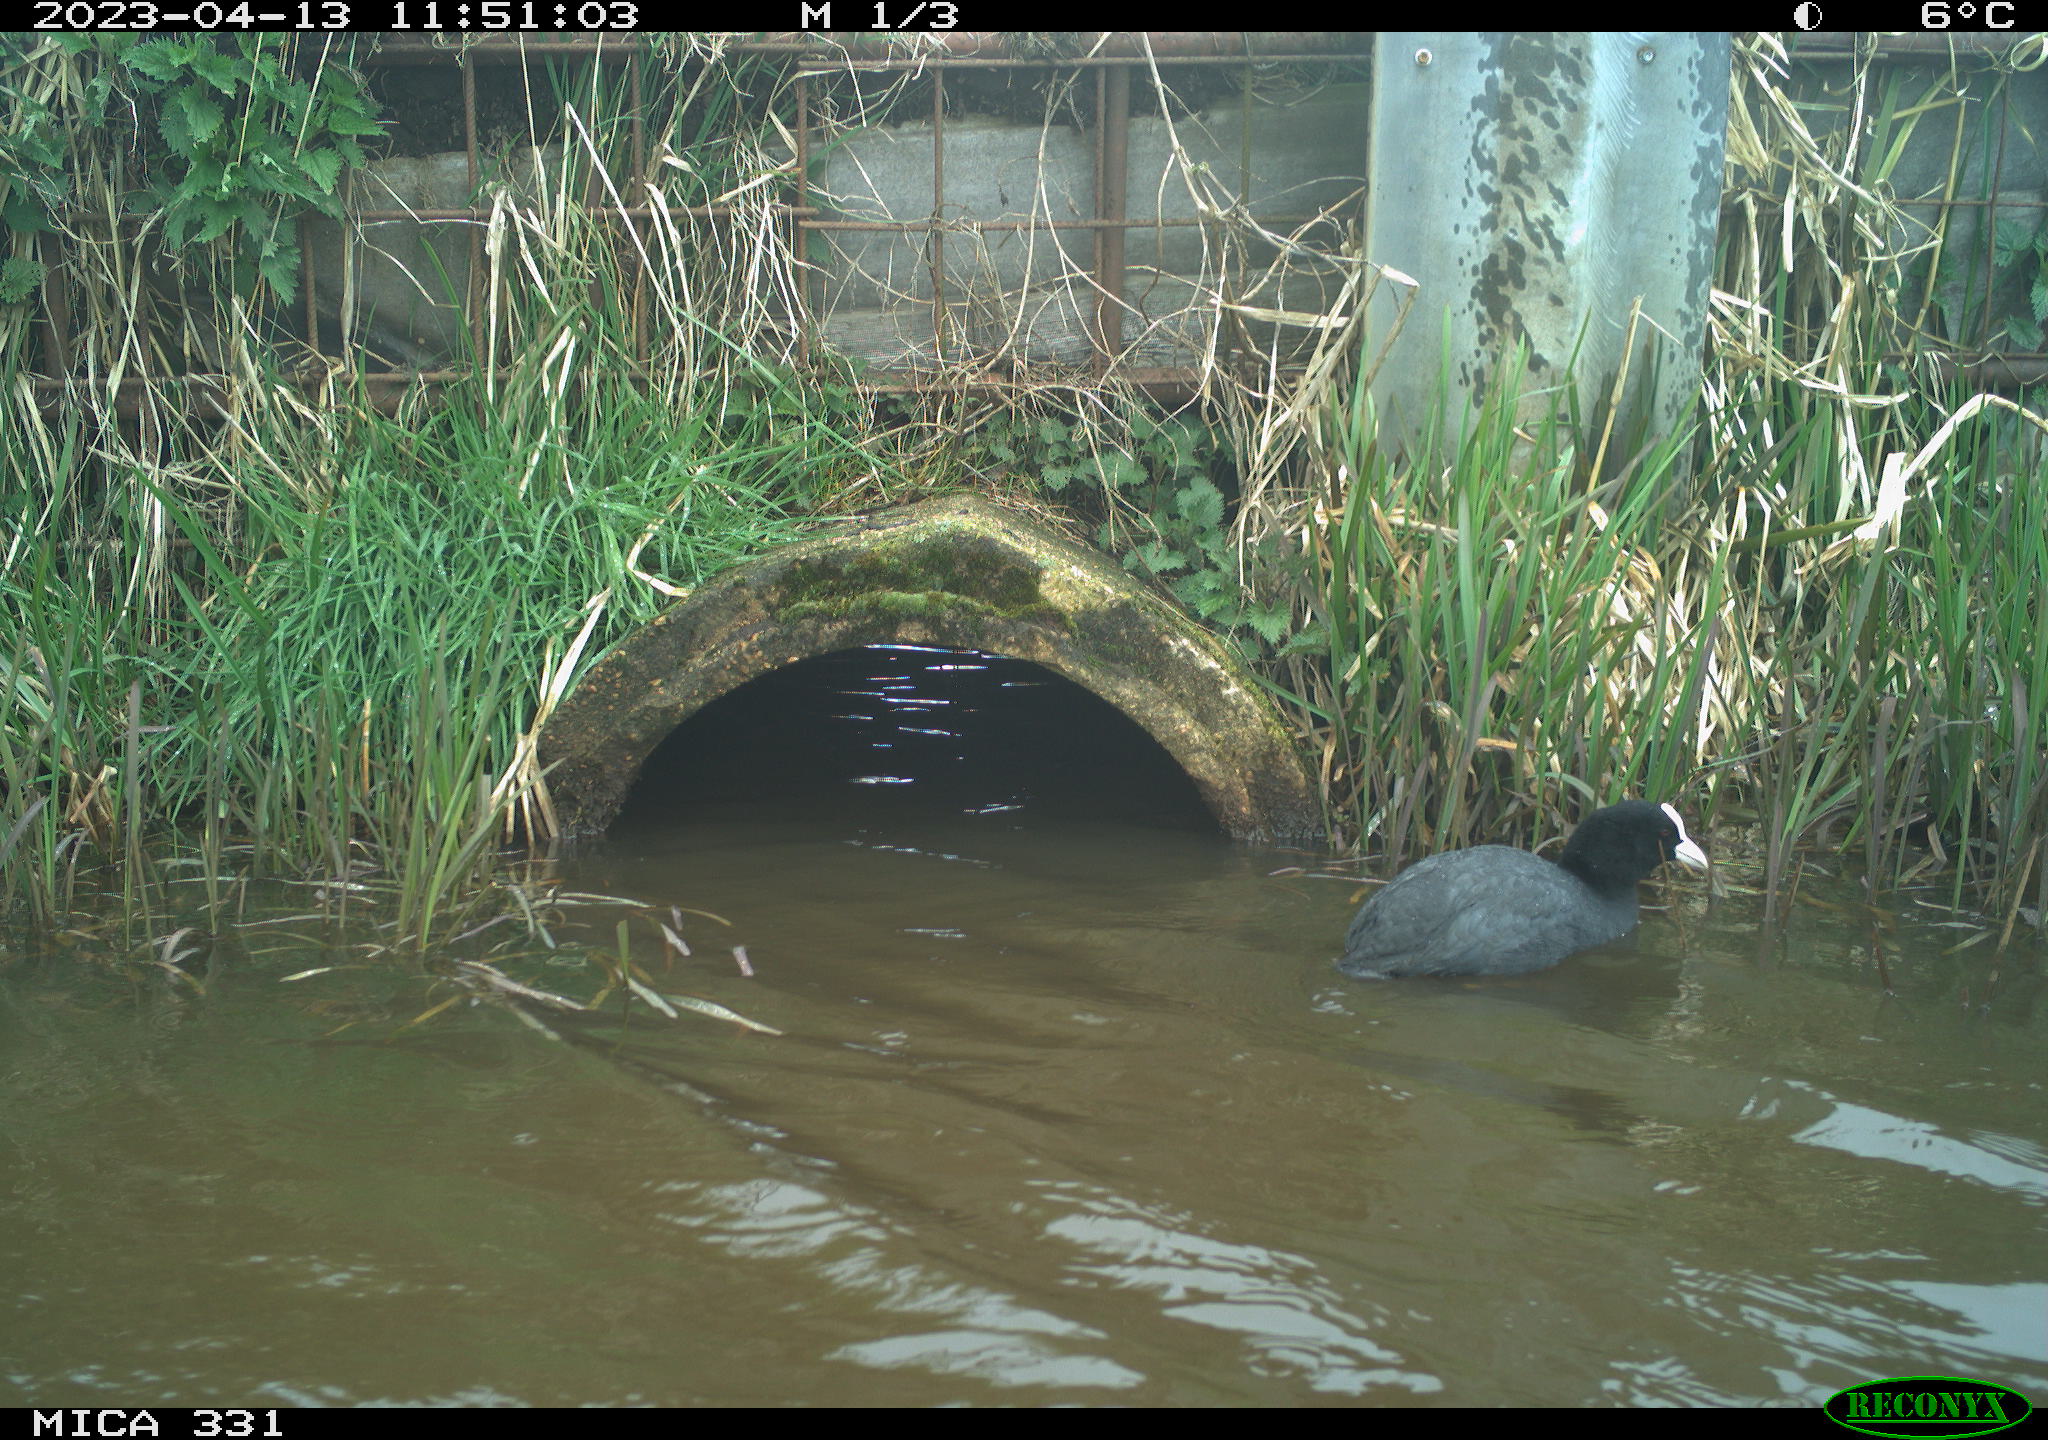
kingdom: Animalia
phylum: Chordata
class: Aves
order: Gruiformes
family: Rallidae
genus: Fulica
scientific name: Fulica atra
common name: Eurasian coot
